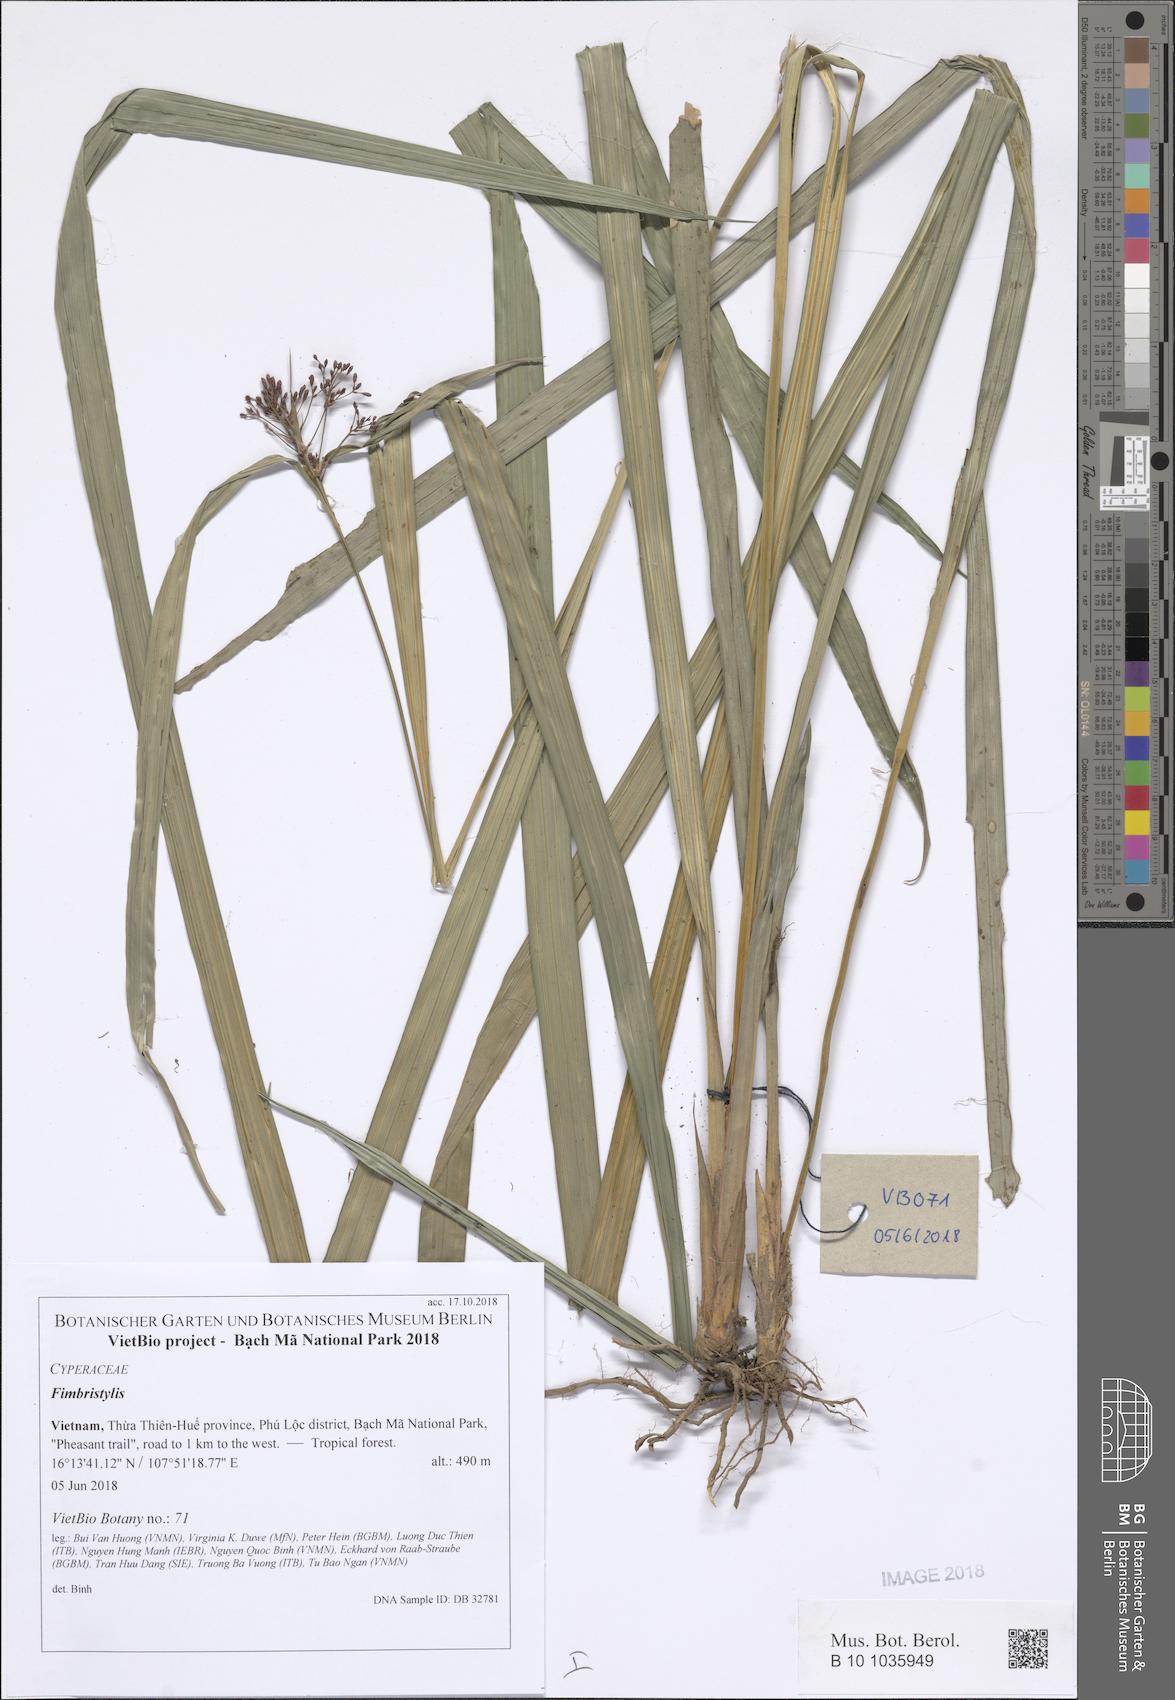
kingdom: Plantae
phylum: Tracheophyta
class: Liliopsida
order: Poales
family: Cyperaceae
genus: Fimbristylis
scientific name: Fimbristylis
